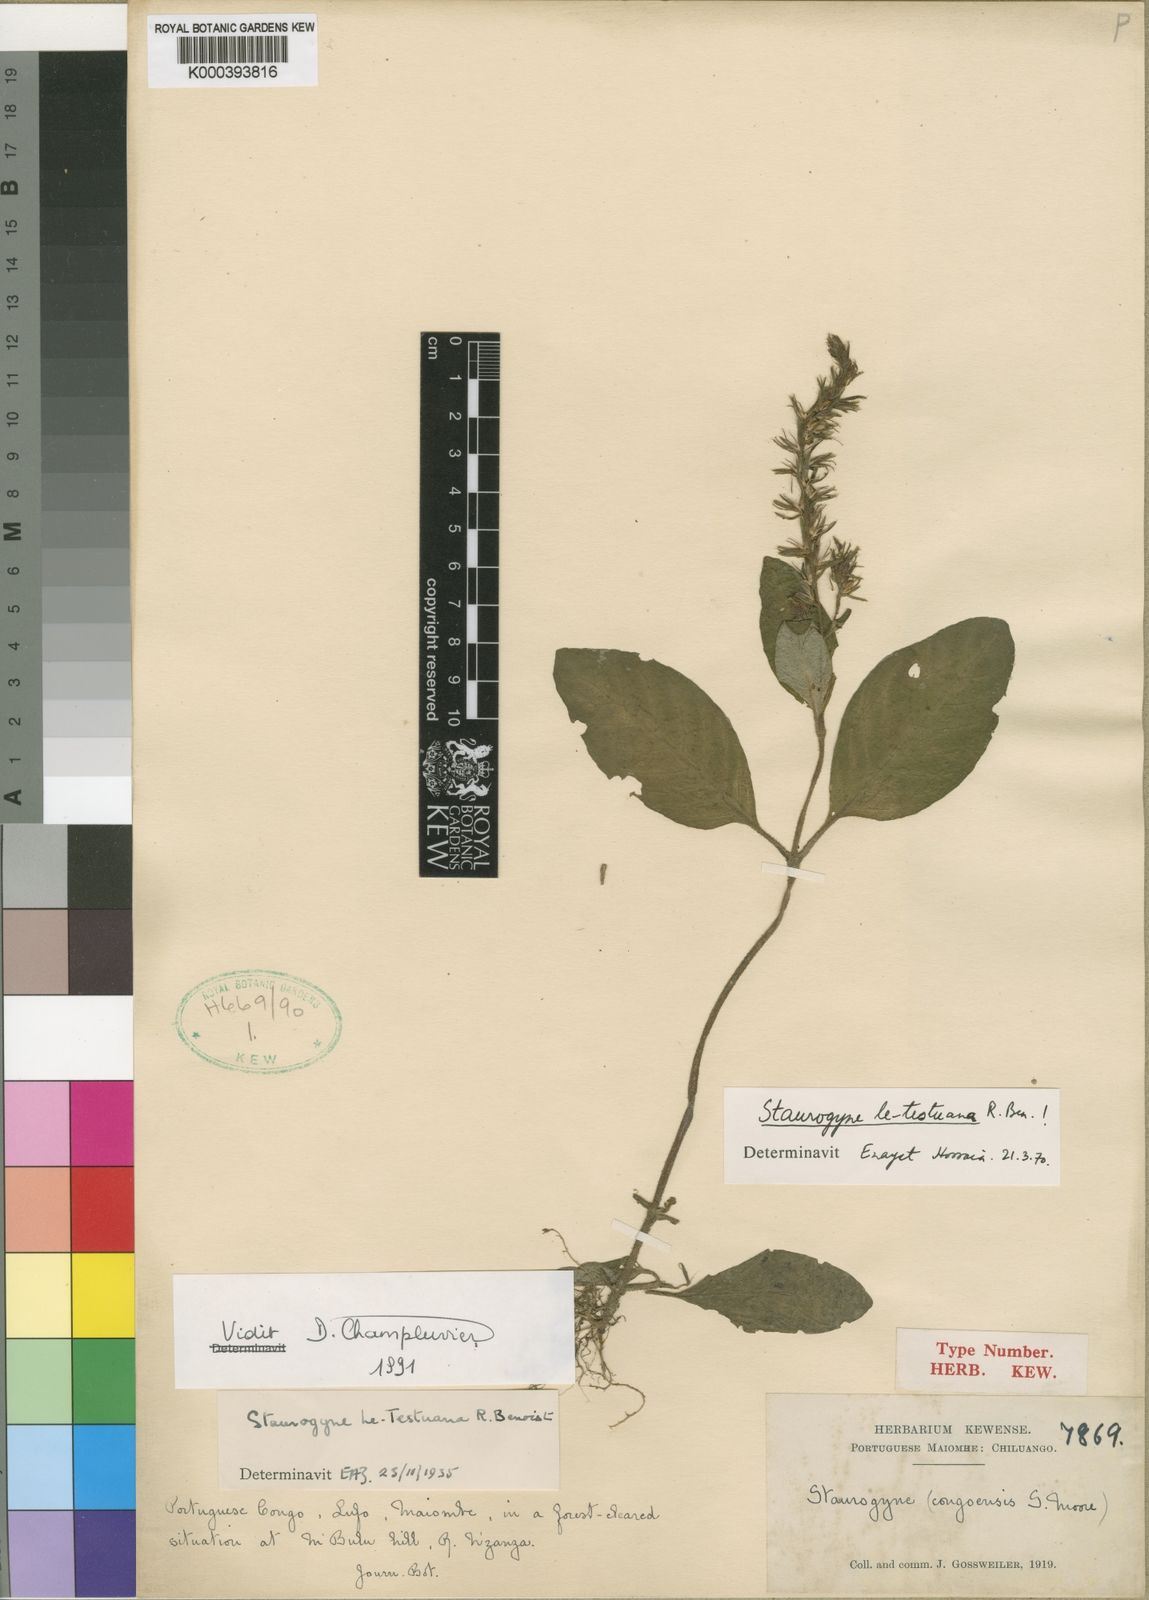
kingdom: Plantae
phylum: Tracheophyta
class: Magnoliopsida
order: Lamiales
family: Acanthaceae
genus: Staurogyne
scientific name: Staurogyne letestuana
